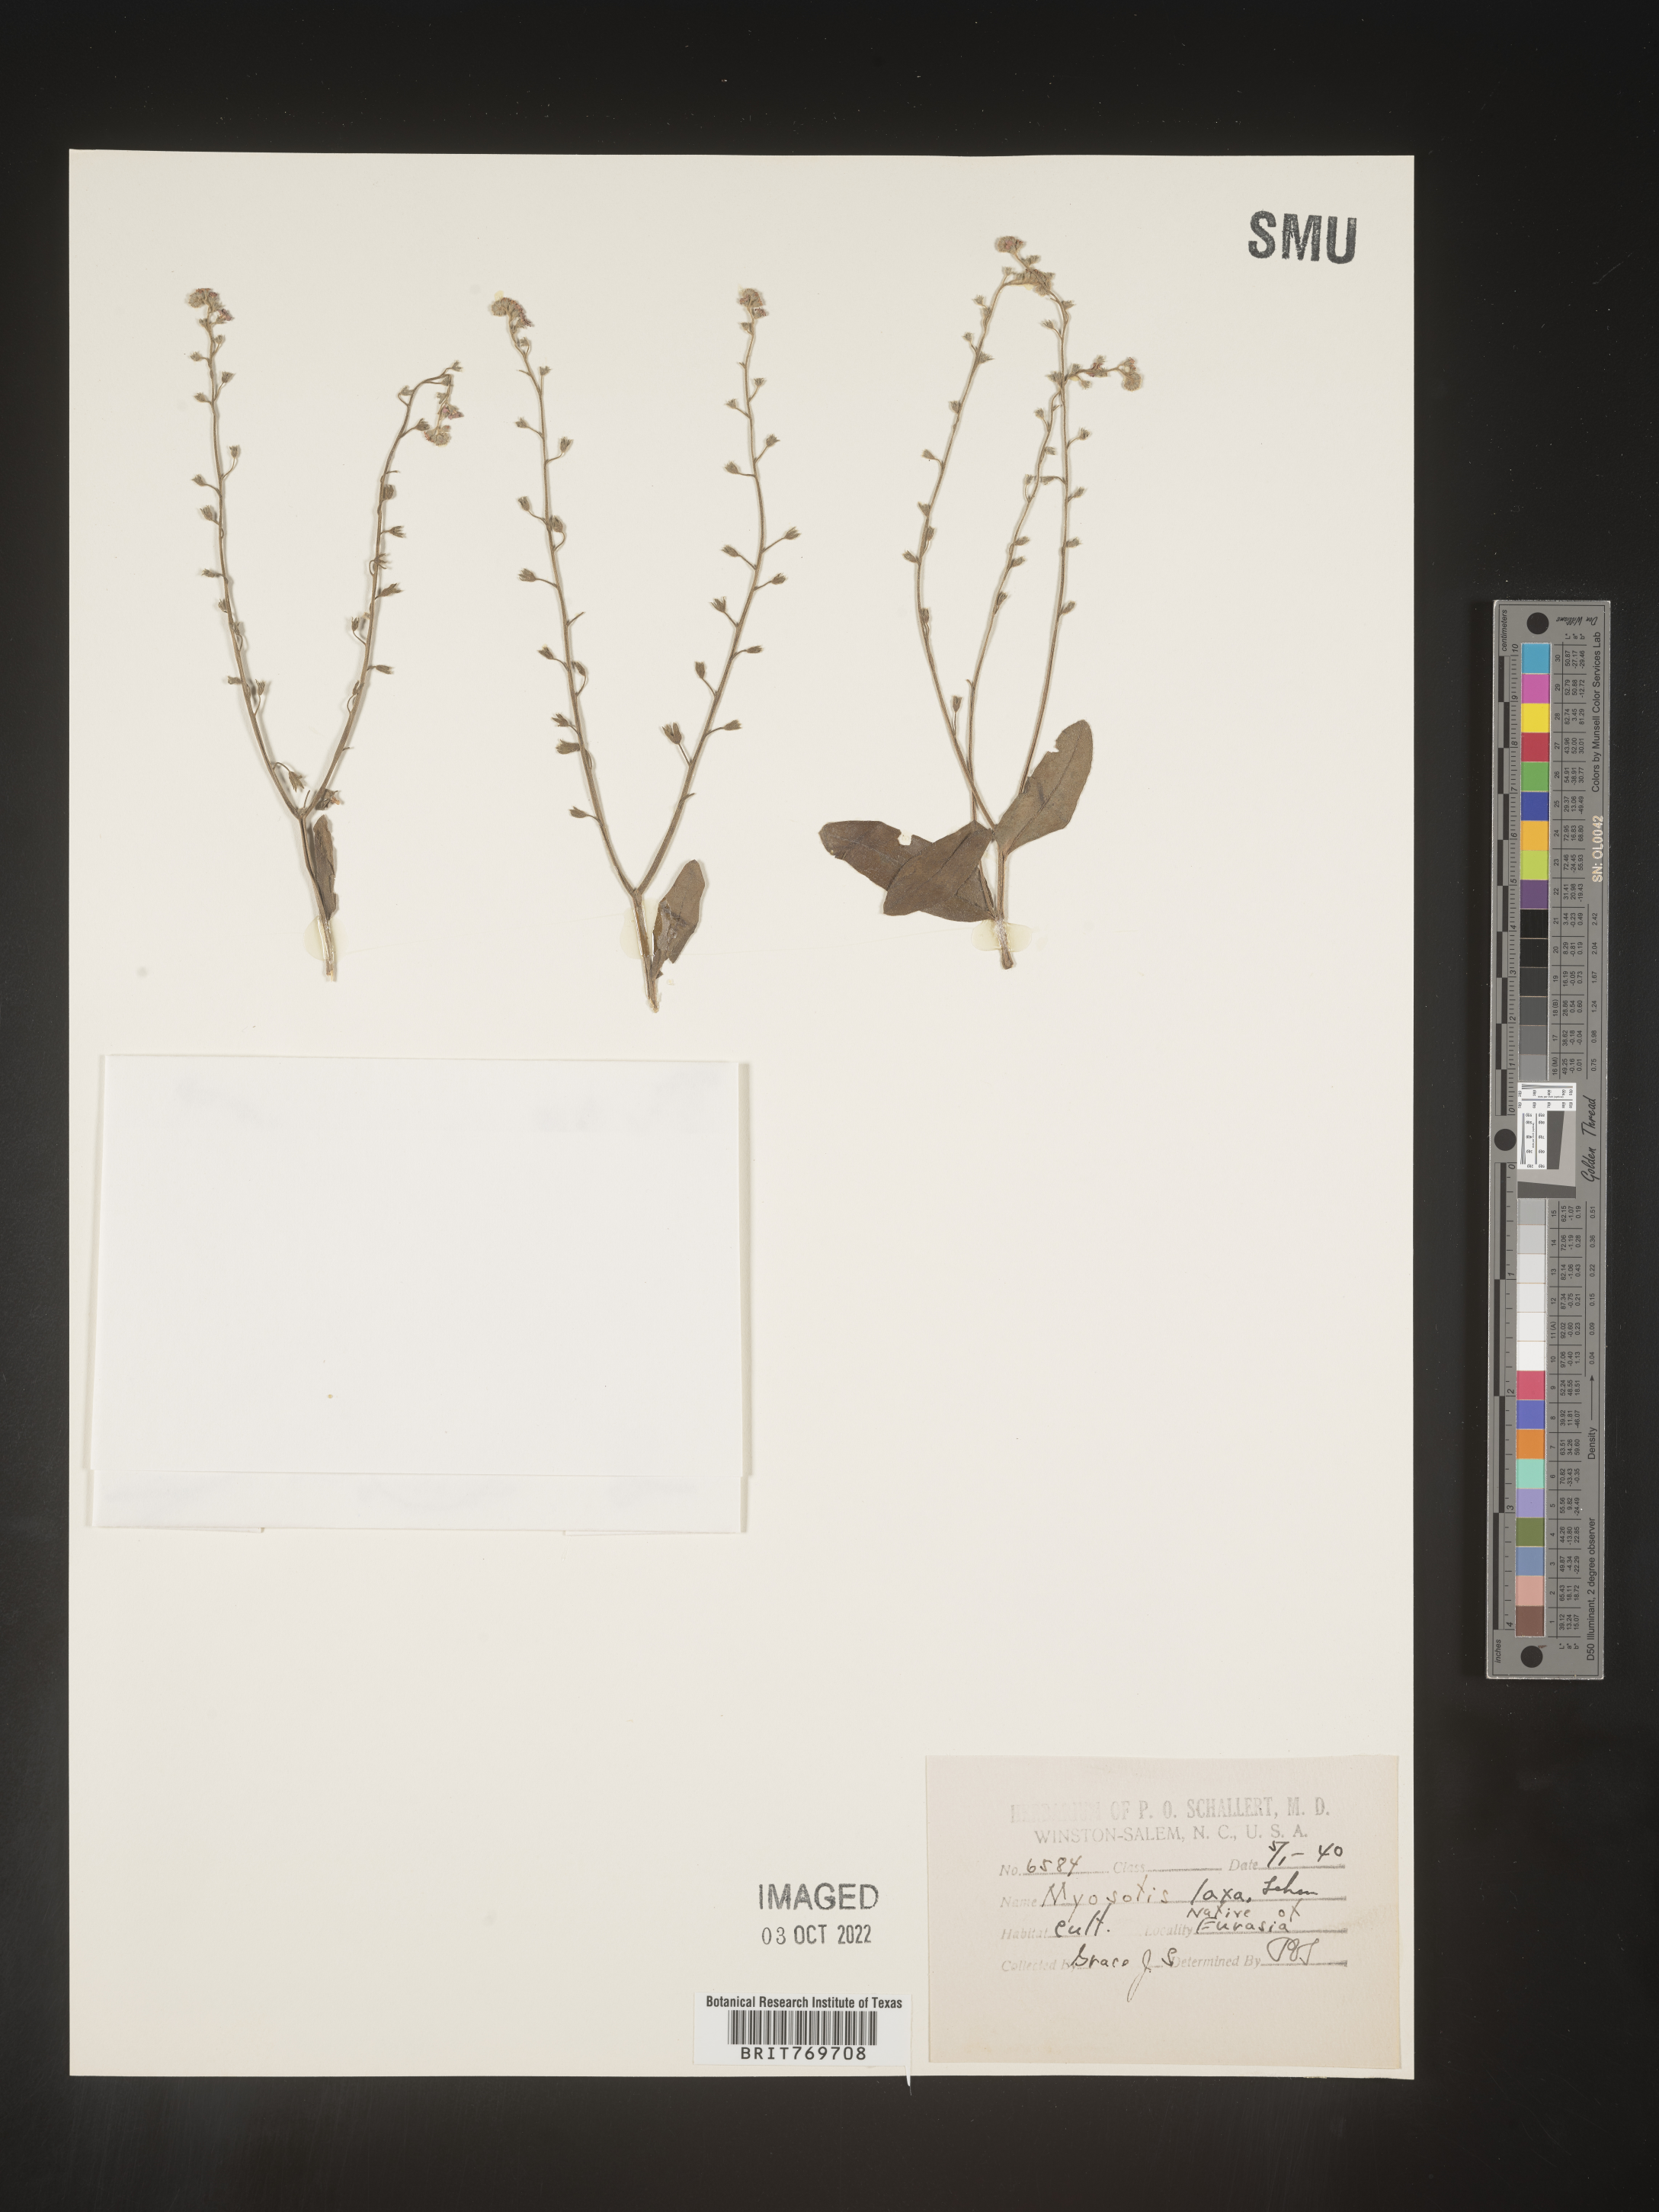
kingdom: Plantae
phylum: Tracheophyta
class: Magnoliopsida
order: Boraginales
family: Boraginaceae
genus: Myosotis
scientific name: Myosotis
